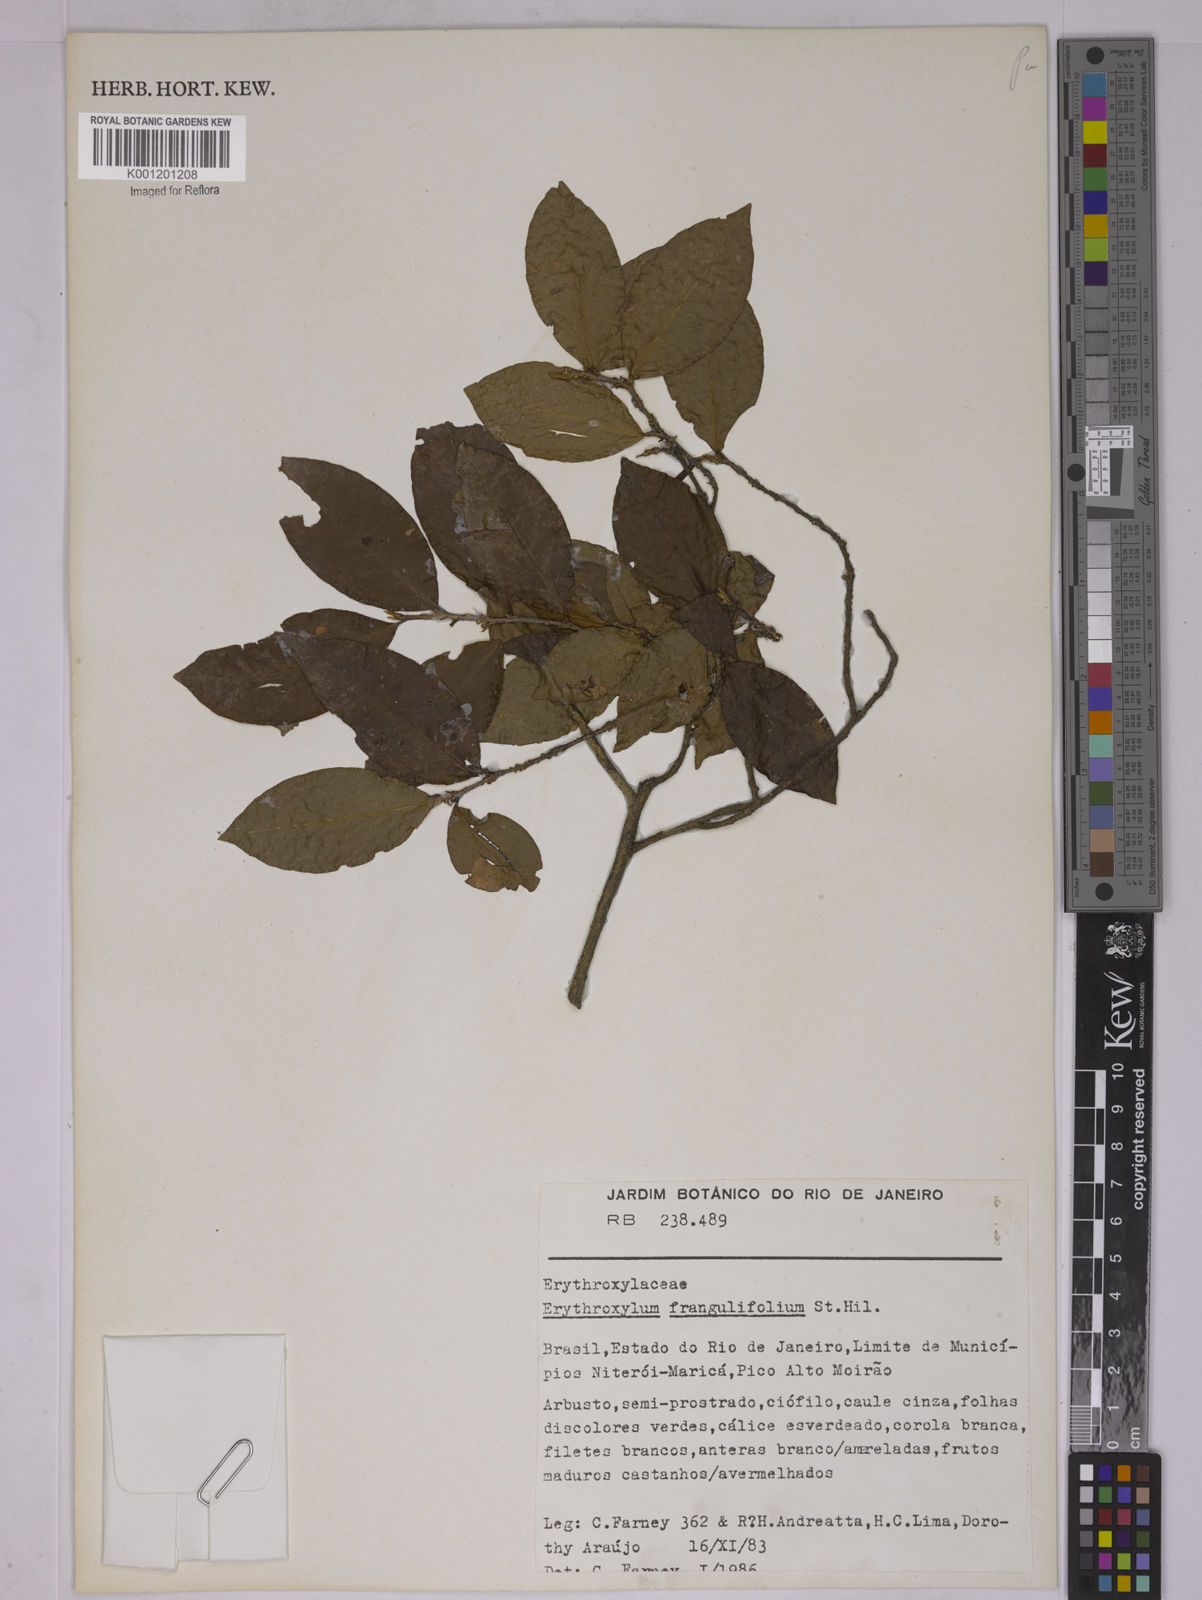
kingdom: Plantae
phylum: Tracheophyta
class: Magnoliopsida
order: Malpighiales
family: Erythroxylaceae
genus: Erythroxylum
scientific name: Erythroxylum frangulifolium
